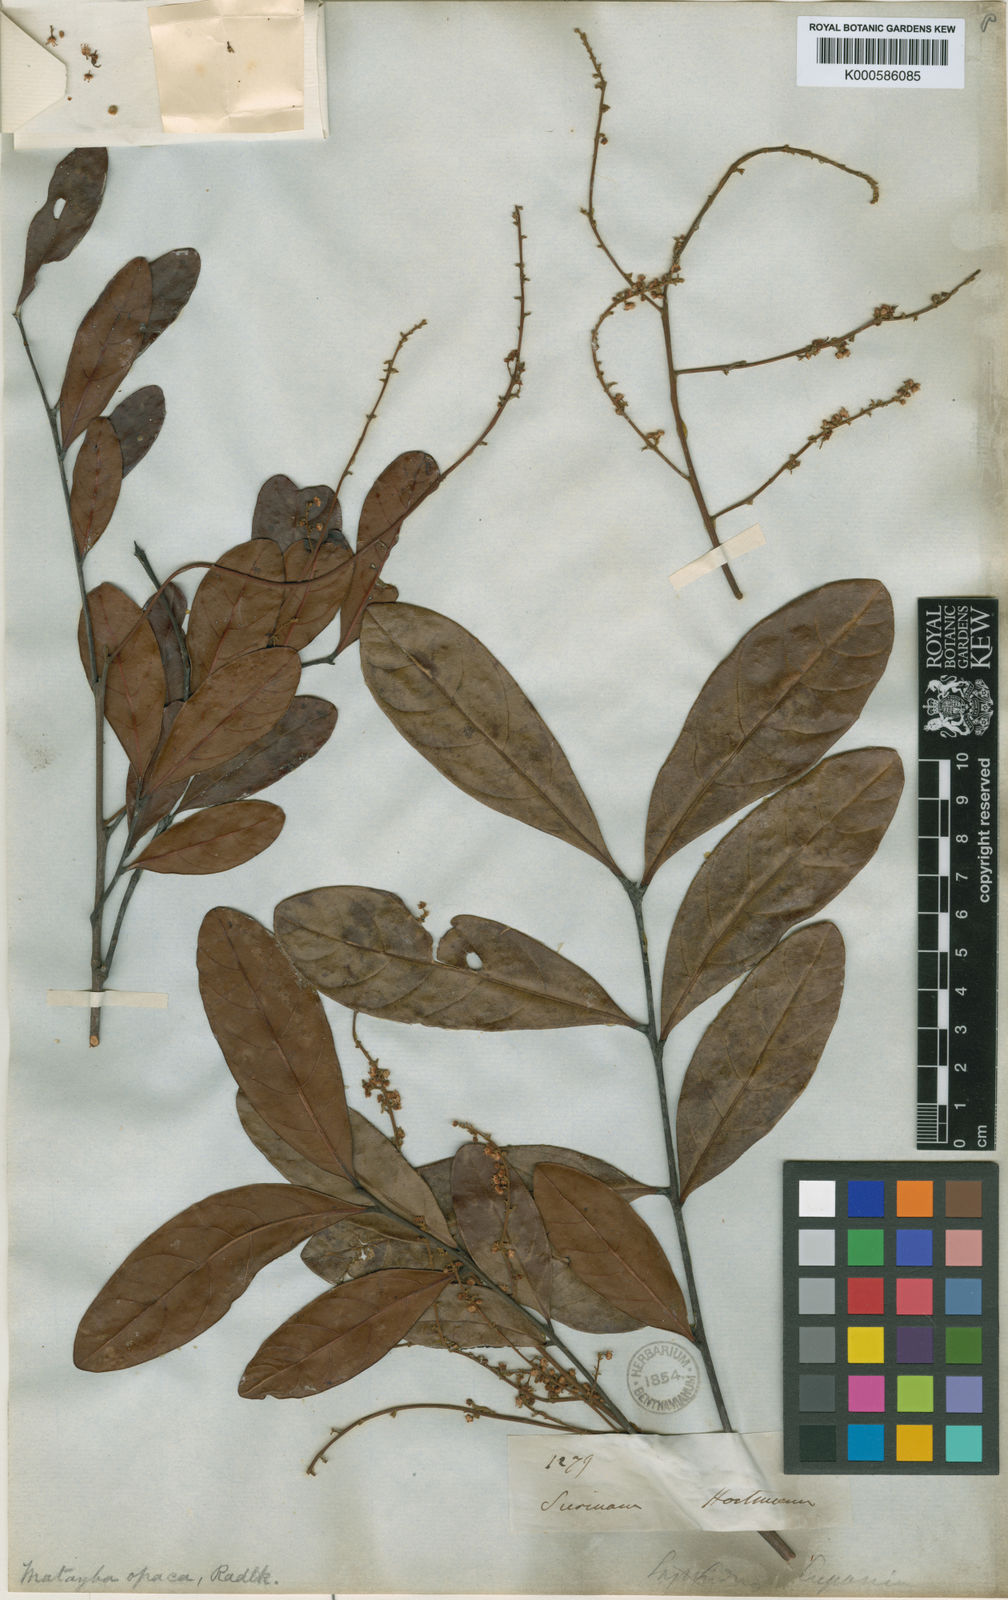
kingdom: Plantae
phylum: Tracheophyta
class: Magnoliopsida
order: Sapindales
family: Sapindaceae
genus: Matayba
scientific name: Matayba opaca
